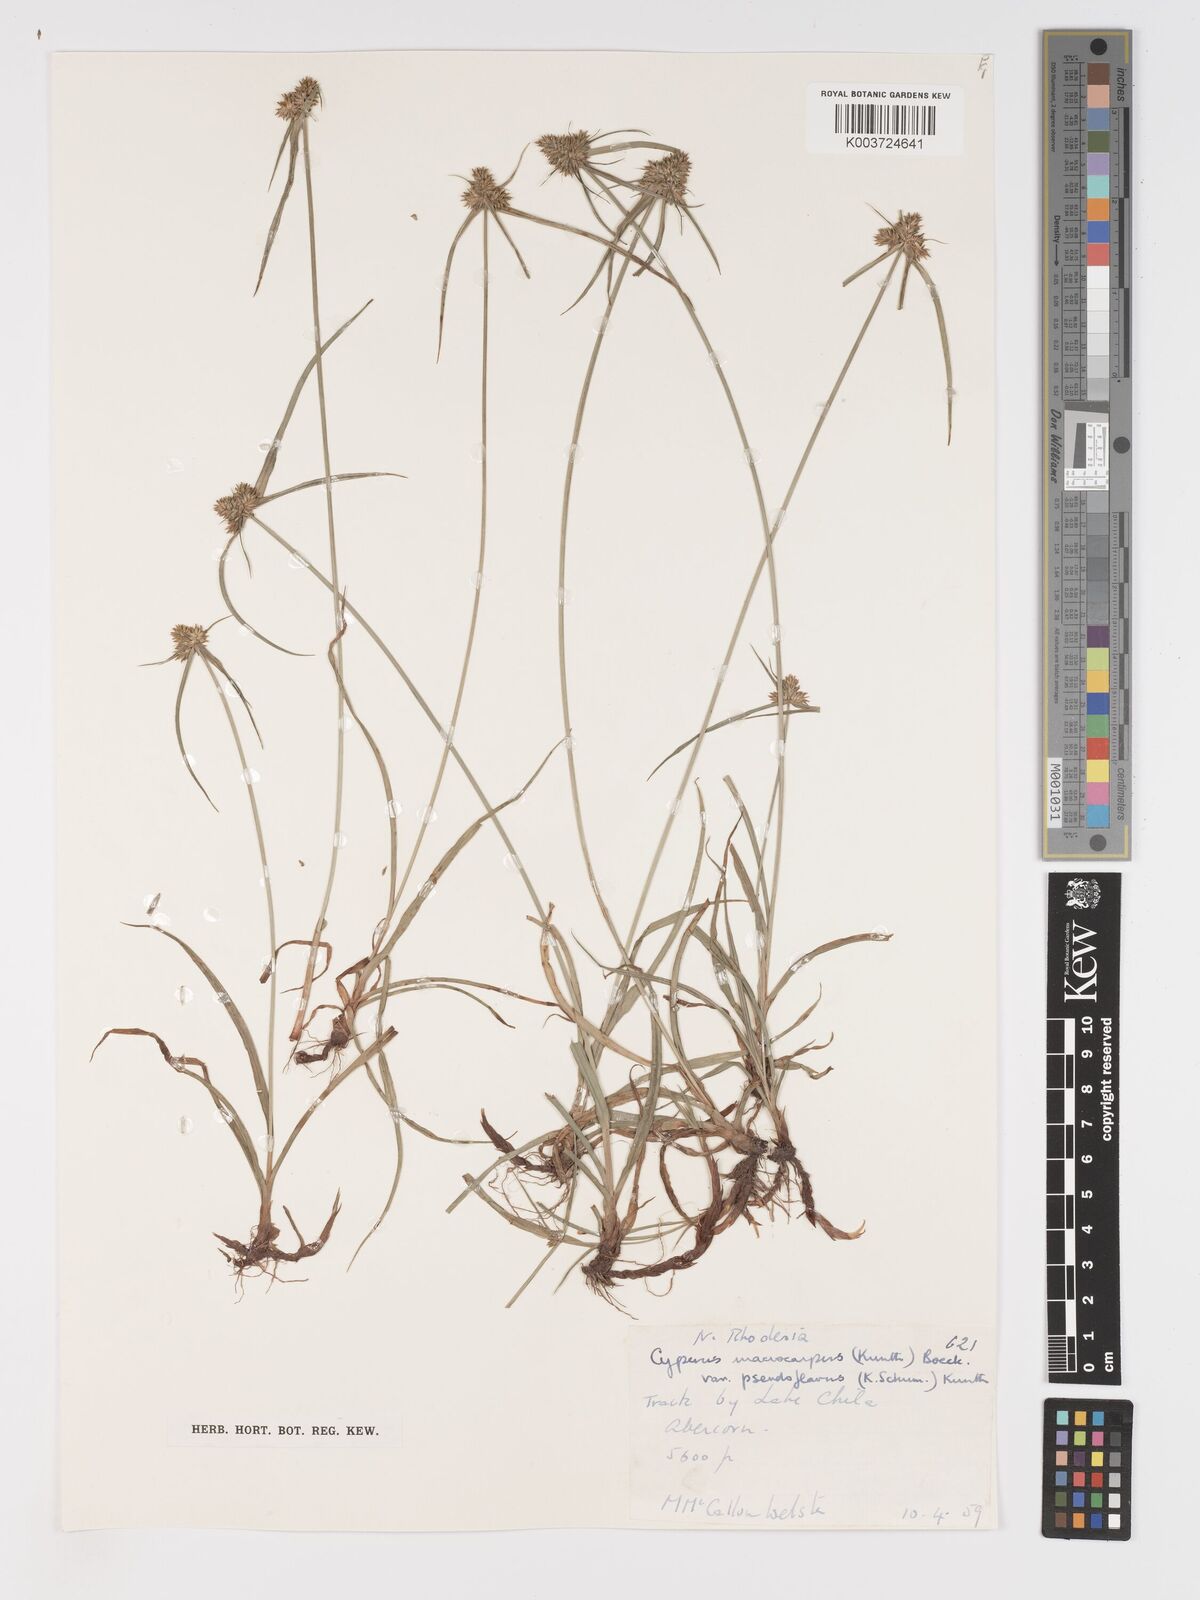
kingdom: Plantae
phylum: Tracheophyta
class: Liliopsida
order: Poales
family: Cyperaceae
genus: Cyperus
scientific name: Cyperus myrmecias
